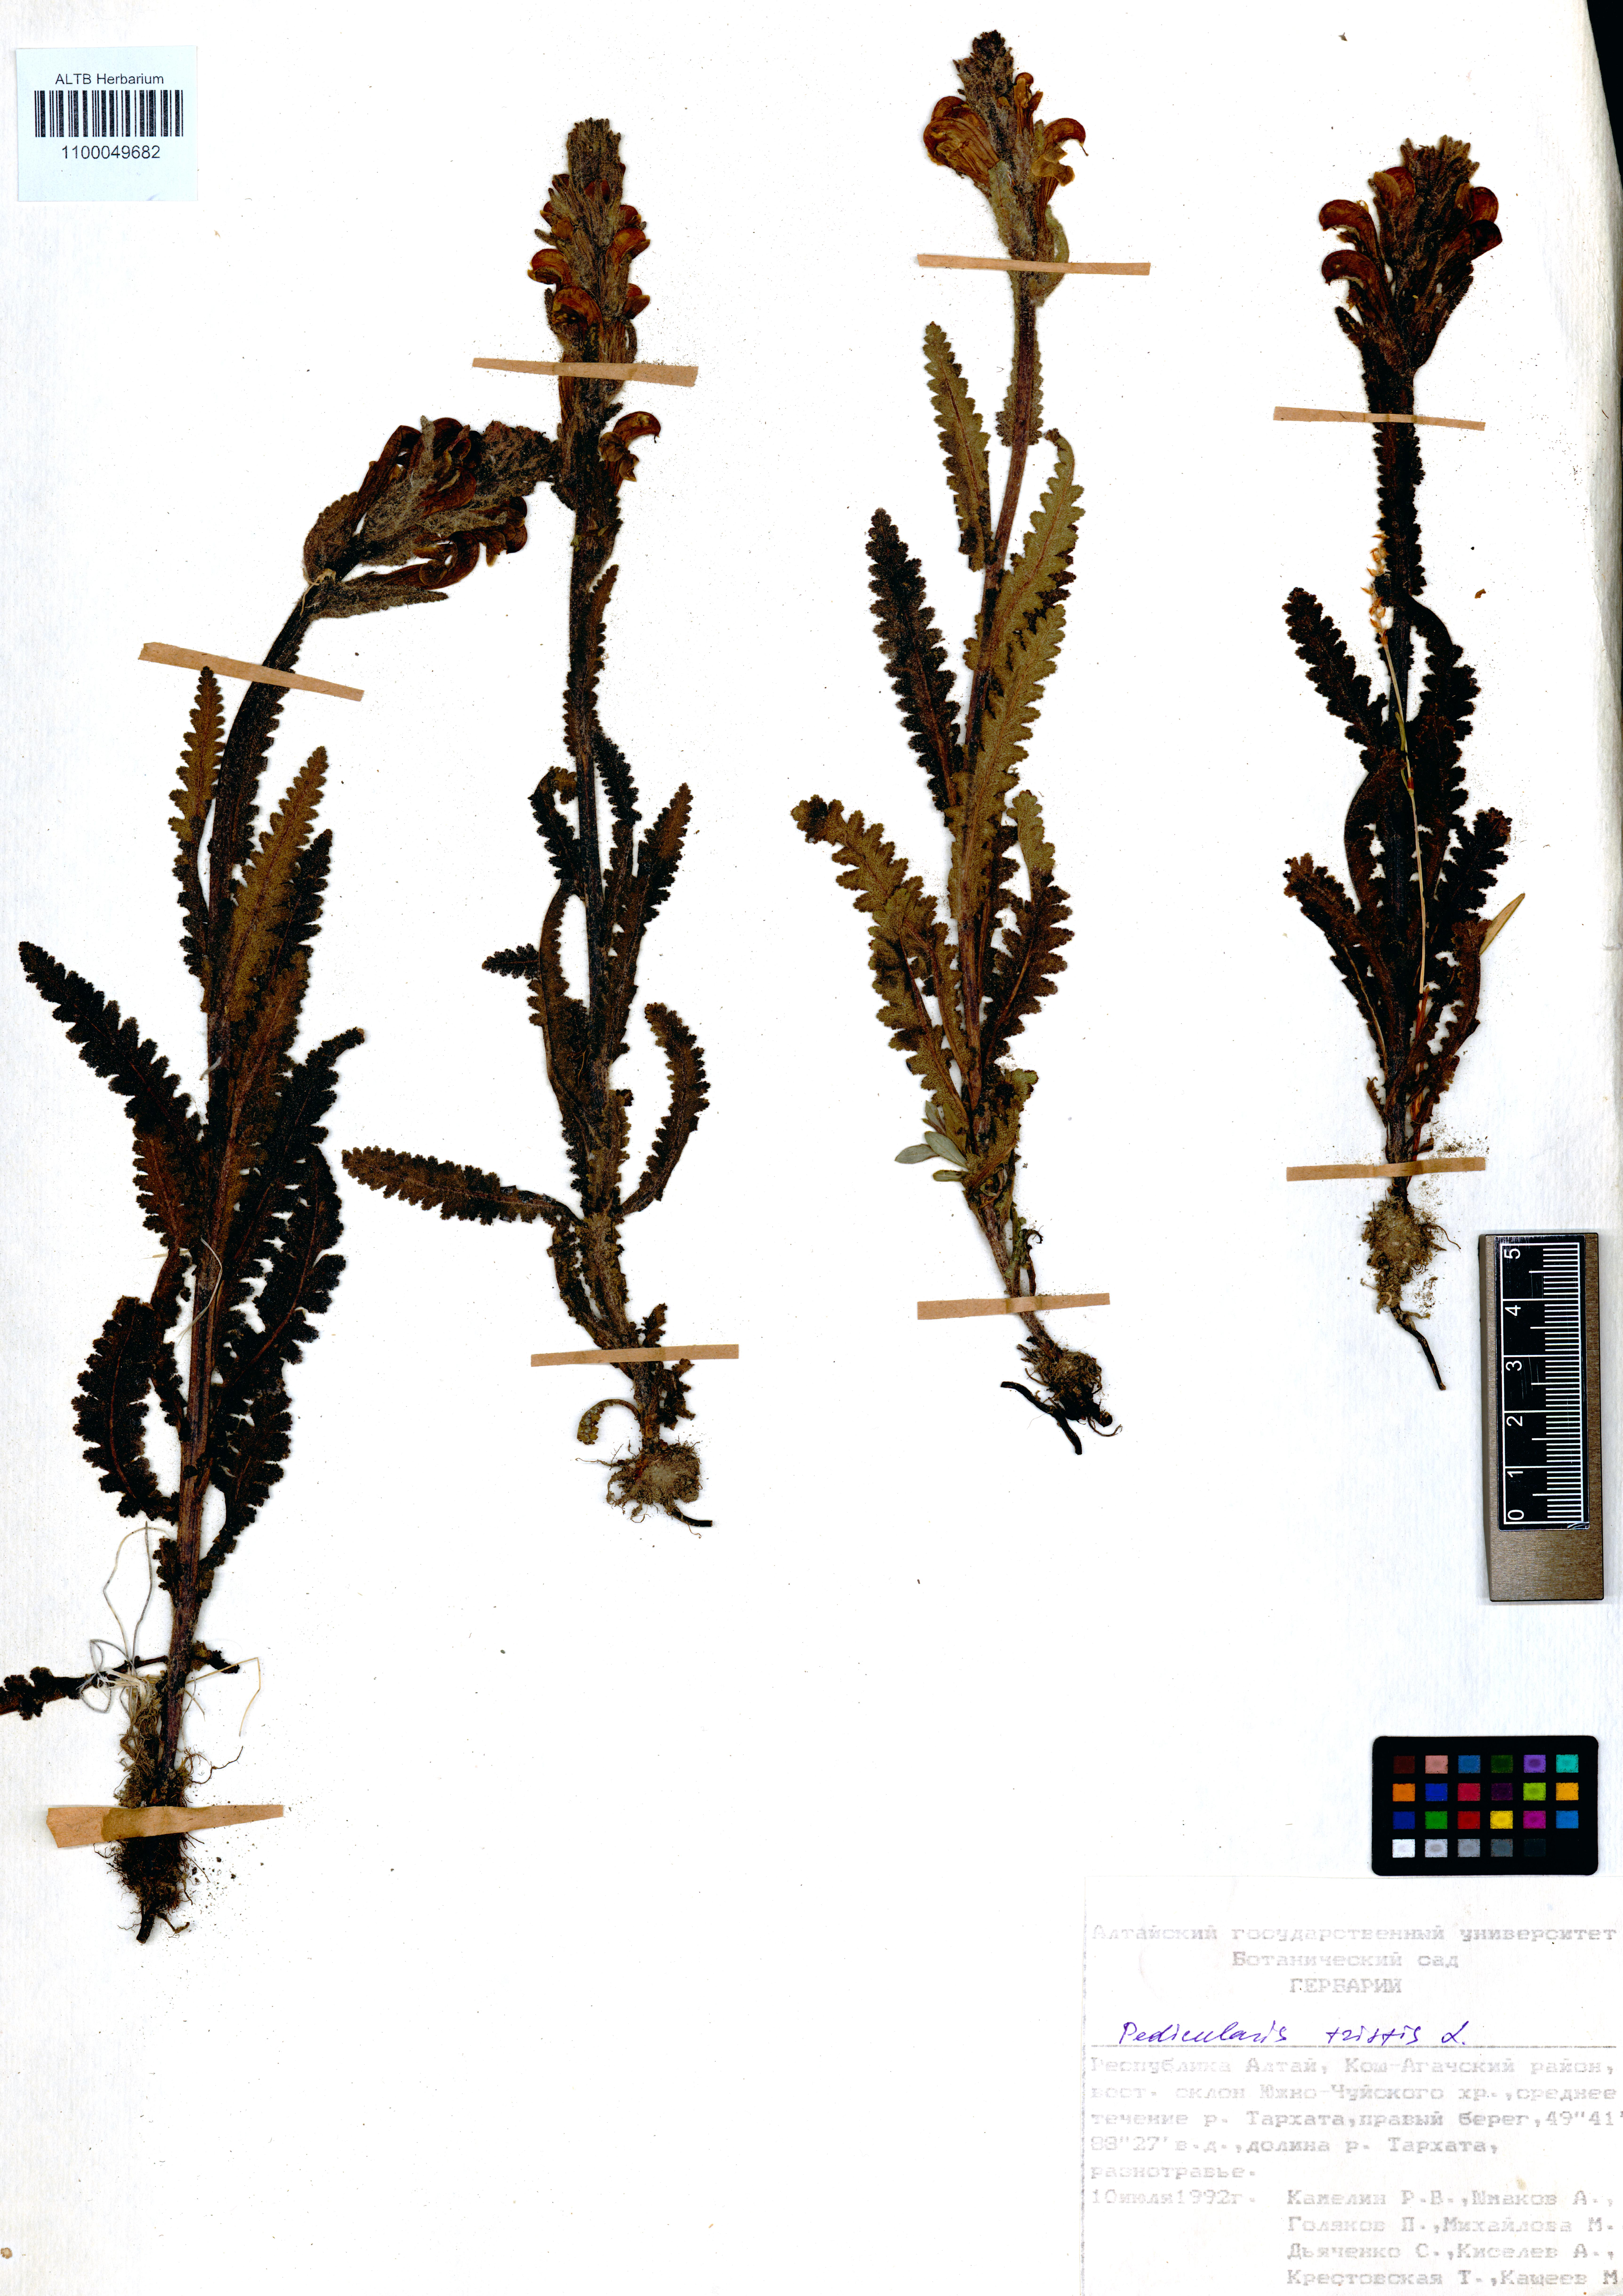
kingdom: Plantae
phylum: Tracheophyta
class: Magnoliopsida
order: Lamiales
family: Orobanchaceae
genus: Pedicularis
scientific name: Pedicularis tristis
